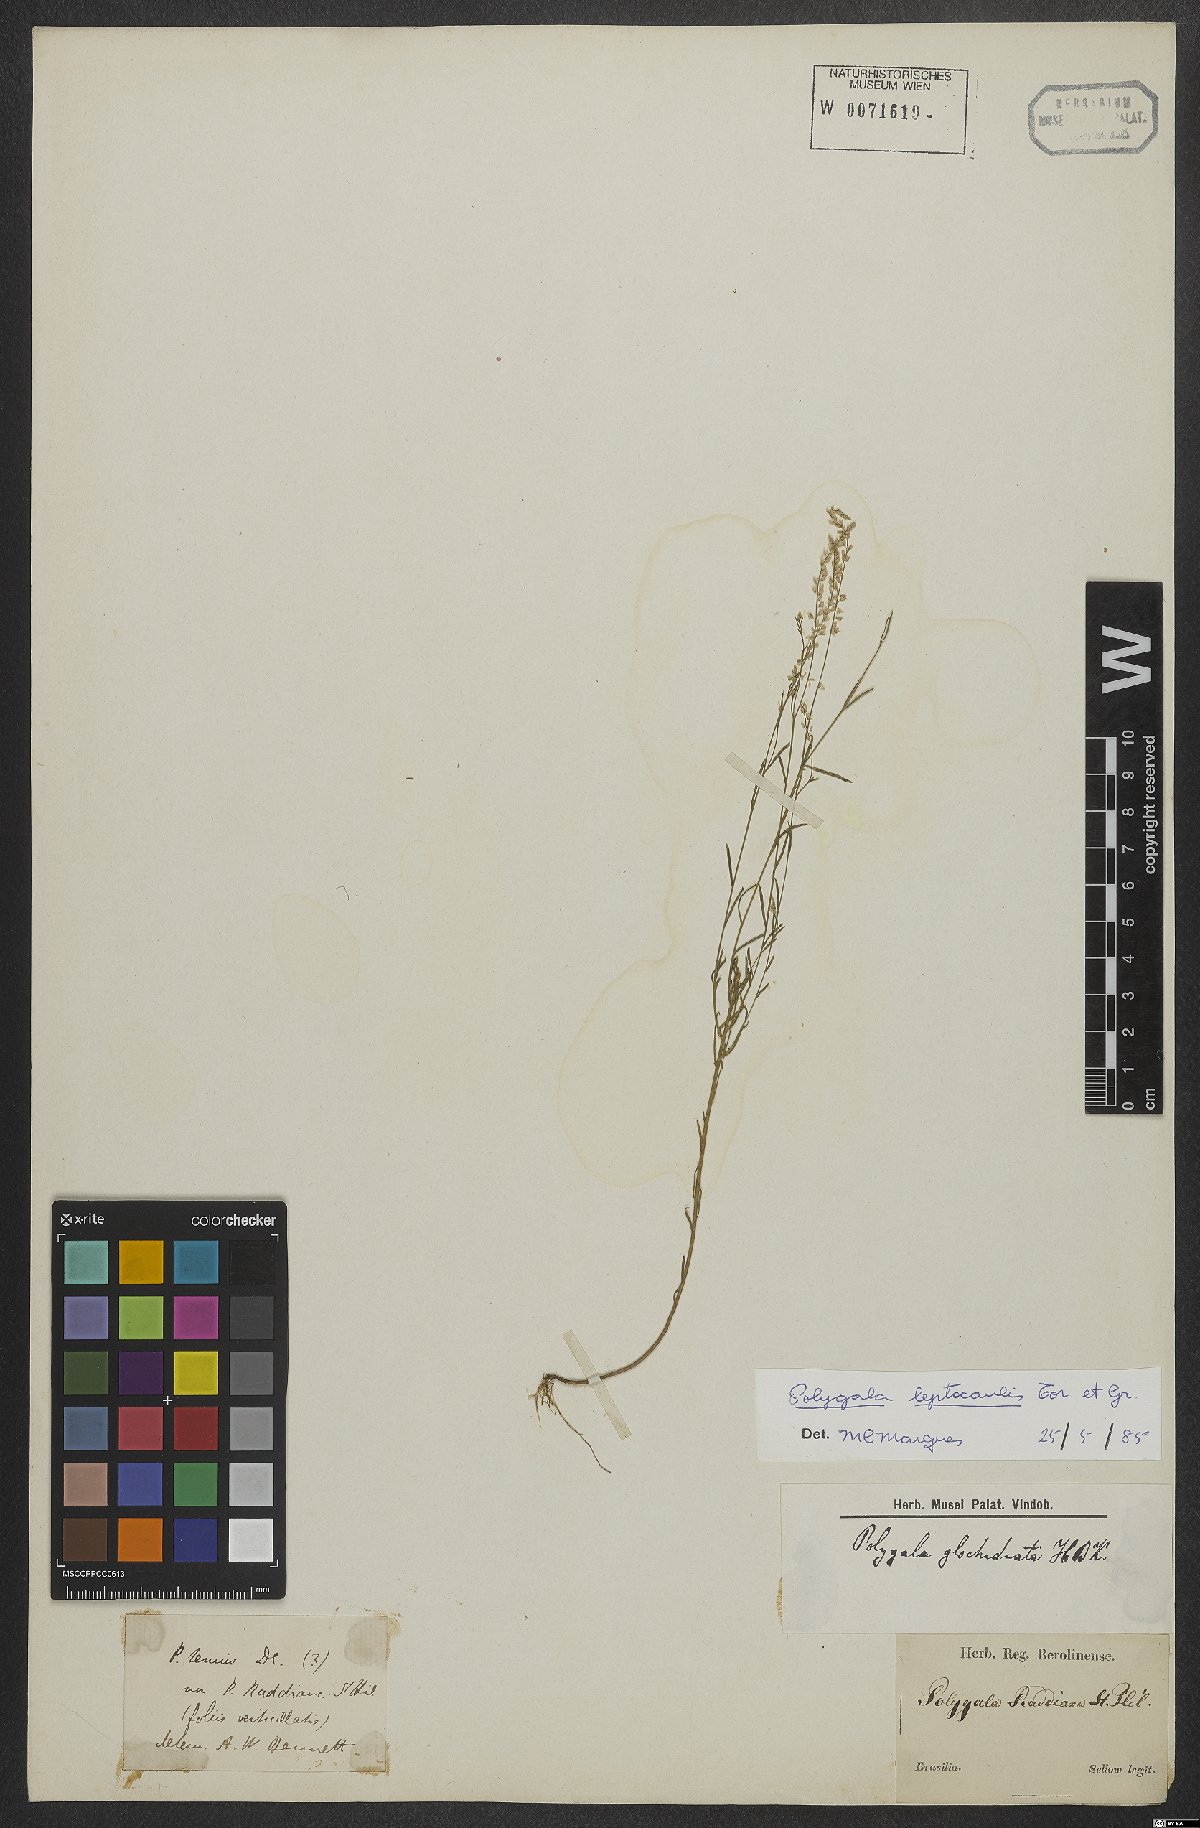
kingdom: Plantae
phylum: Tracheophyta
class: Magnoliopsida
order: Fabales
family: Polygalaceae
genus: Polygala
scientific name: Polygala tenella
